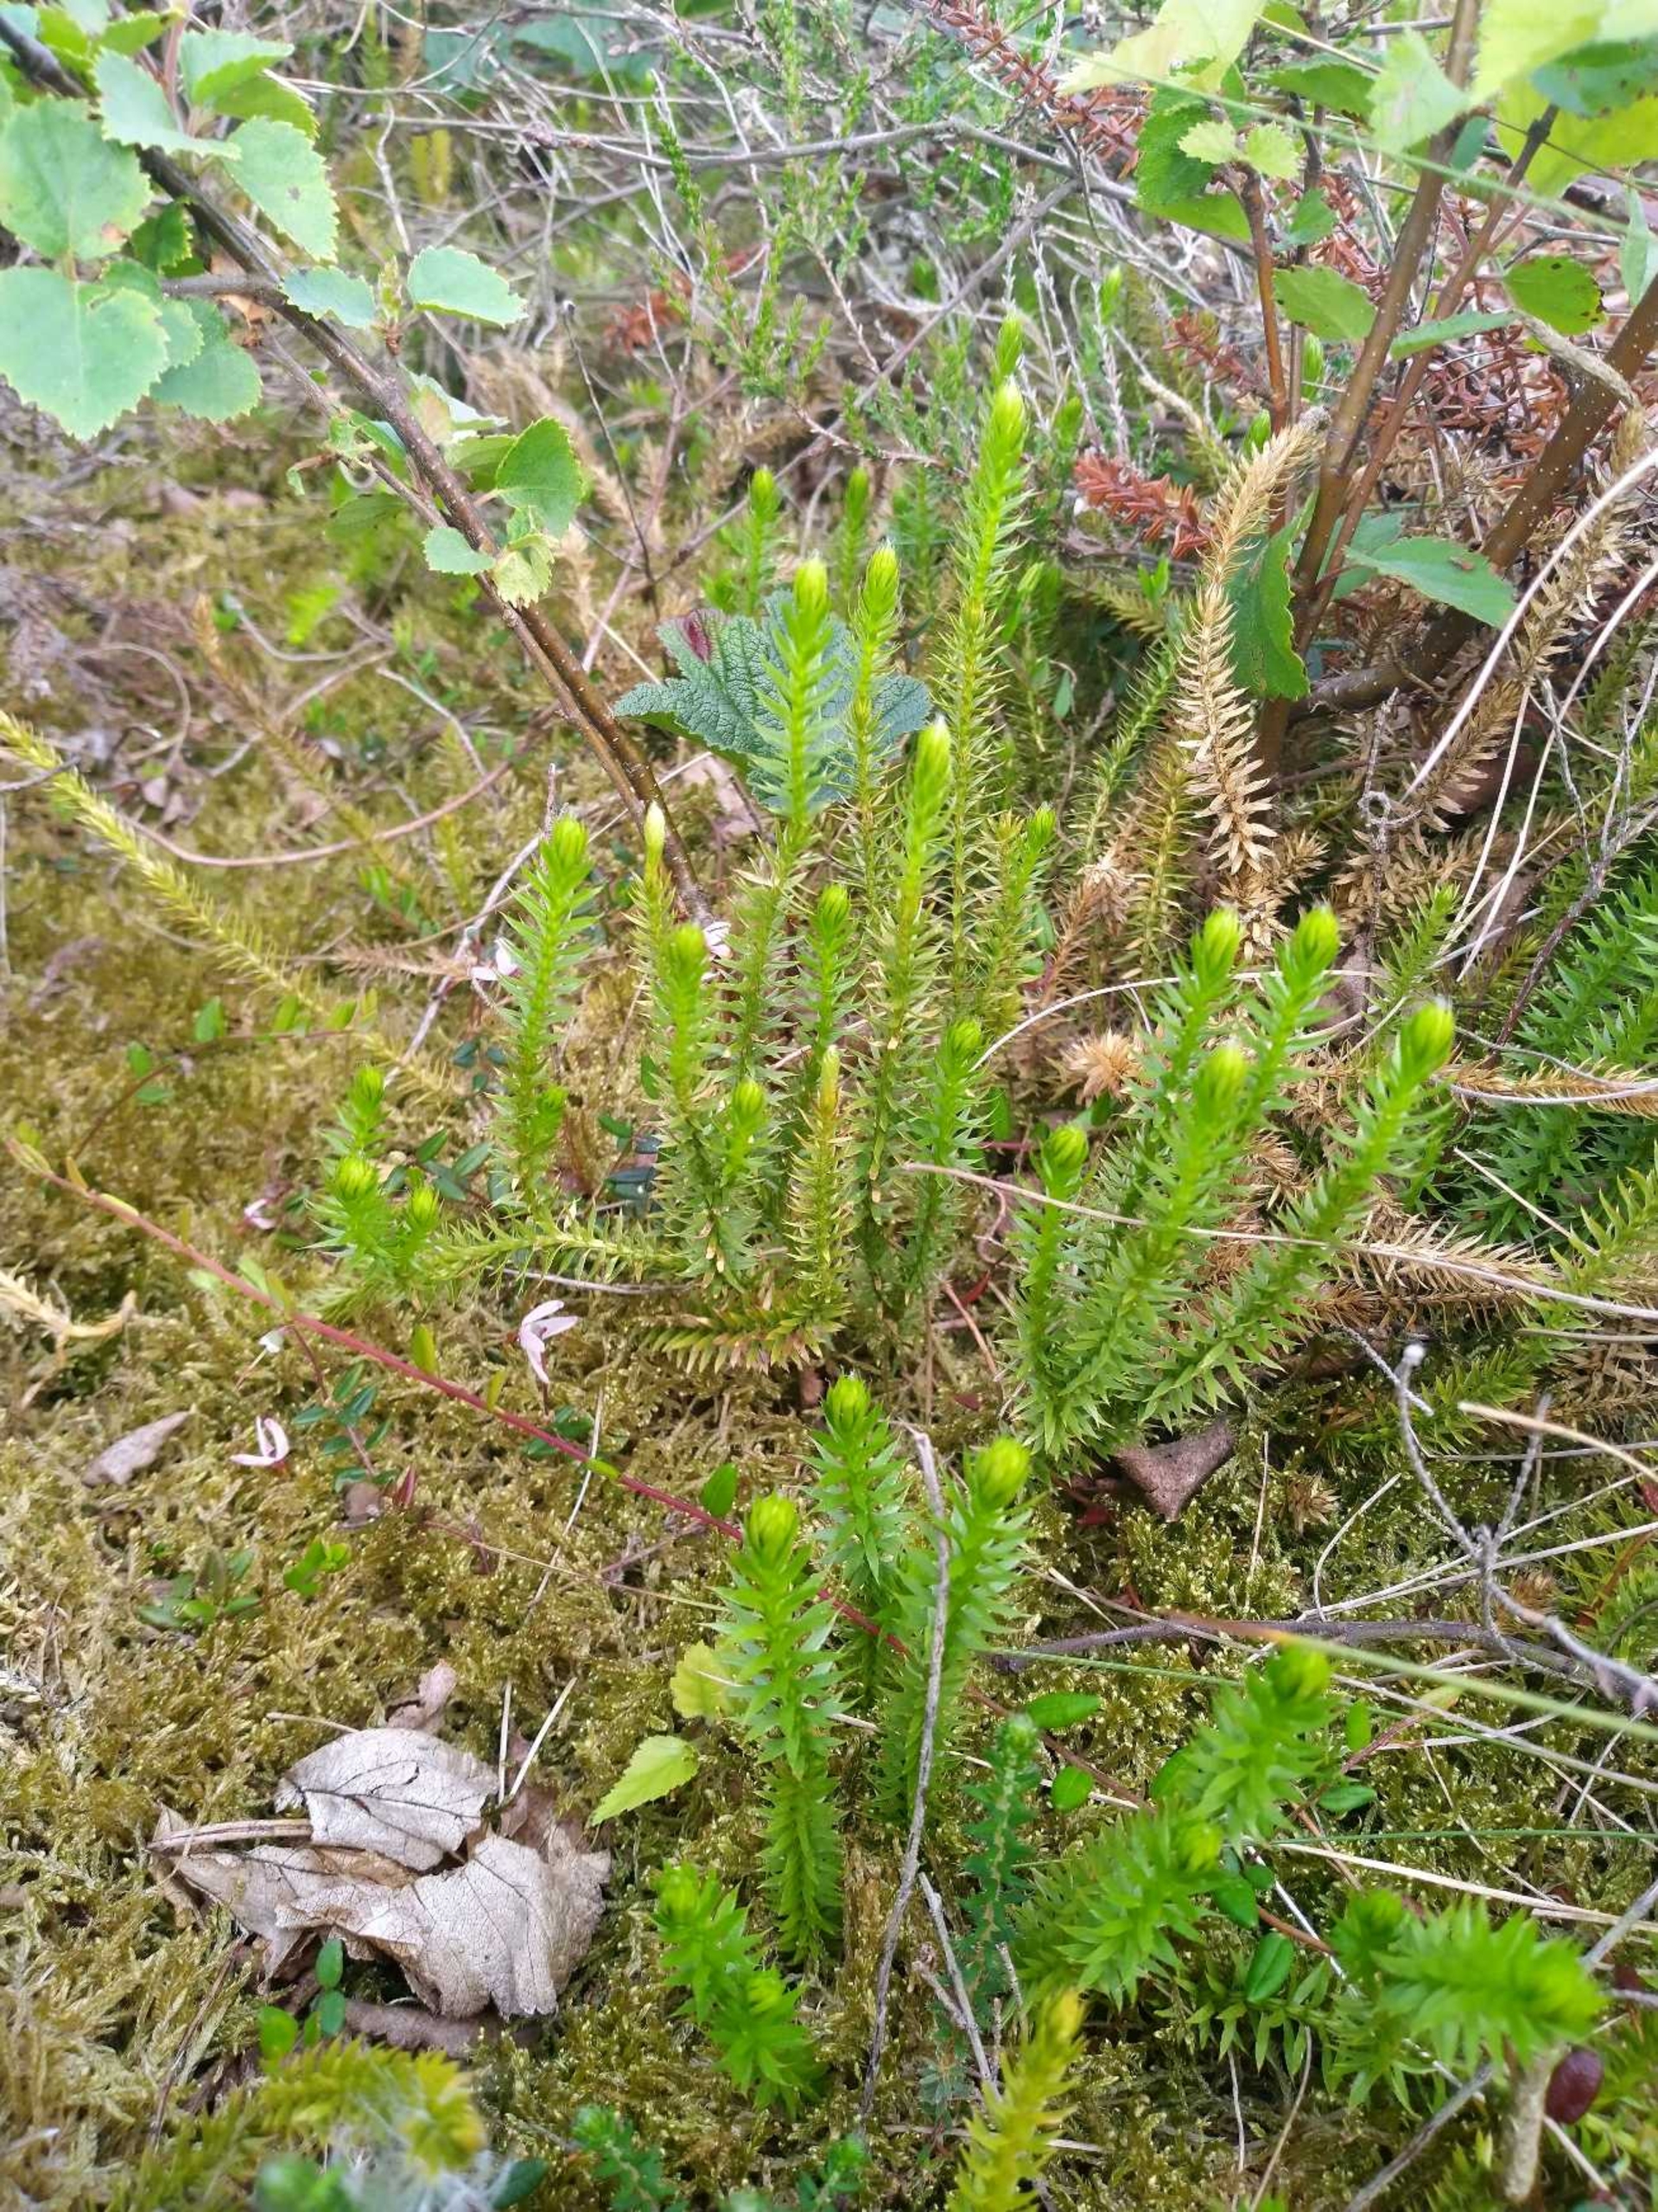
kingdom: Plantae
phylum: Tracheophyta
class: Lycopodiopsida
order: Lycopodiales
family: Lycopodiaceae
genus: Spinulum
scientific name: Spinulum annotinum
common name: Femradet ulvefod
